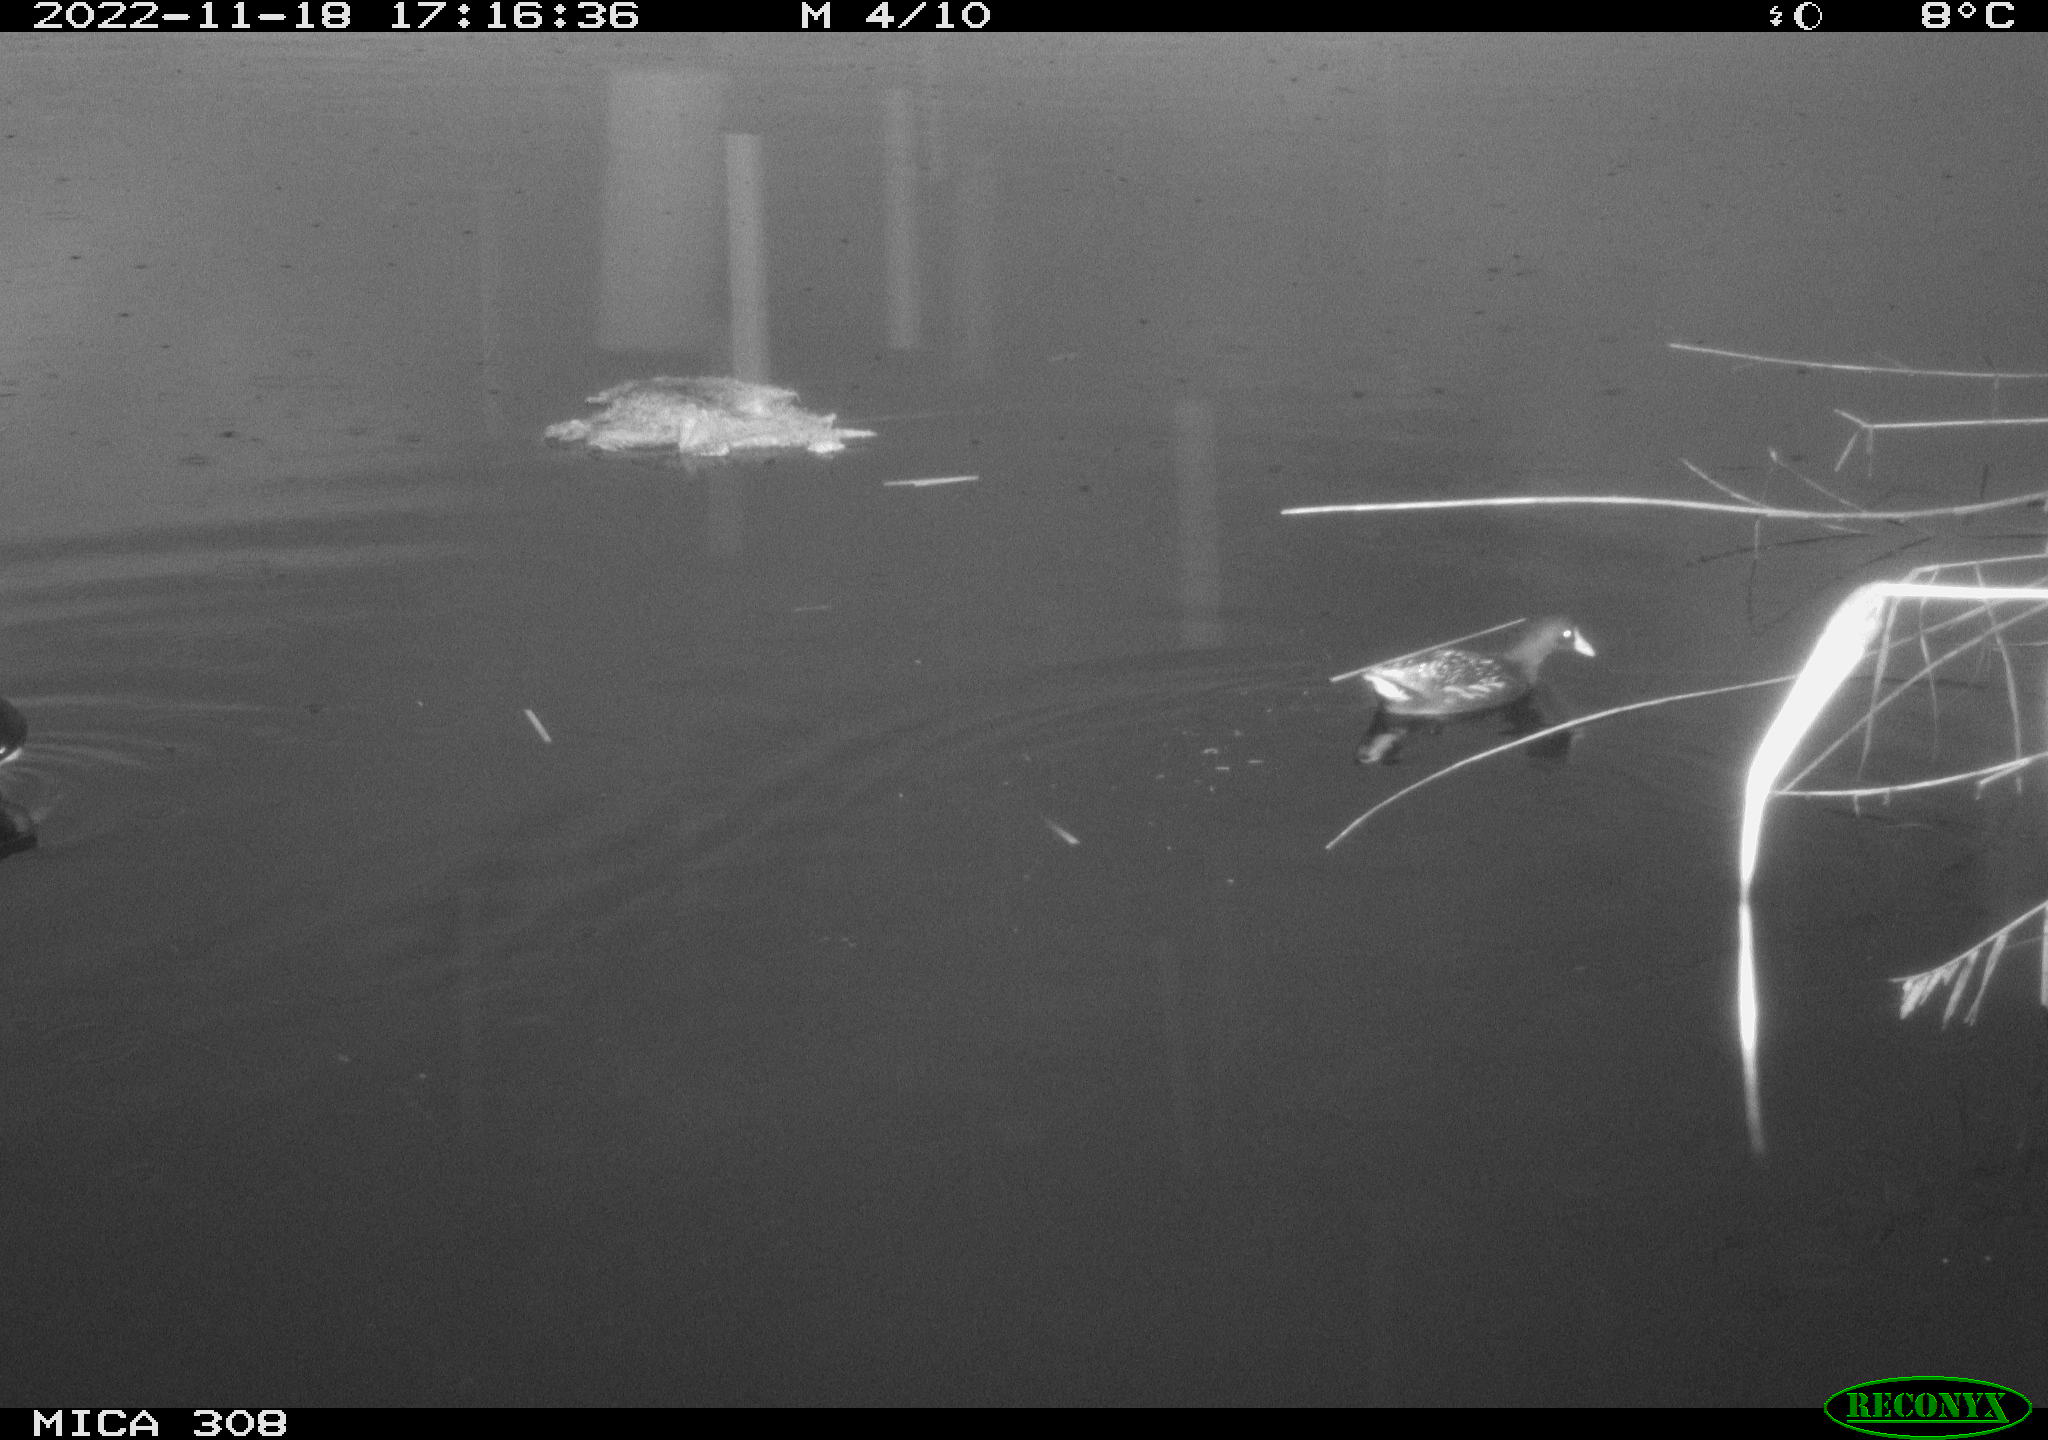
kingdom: Animalia
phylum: Chordata
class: Aves
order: Anseriformes
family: Anatidae
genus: Anas
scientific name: Anas
